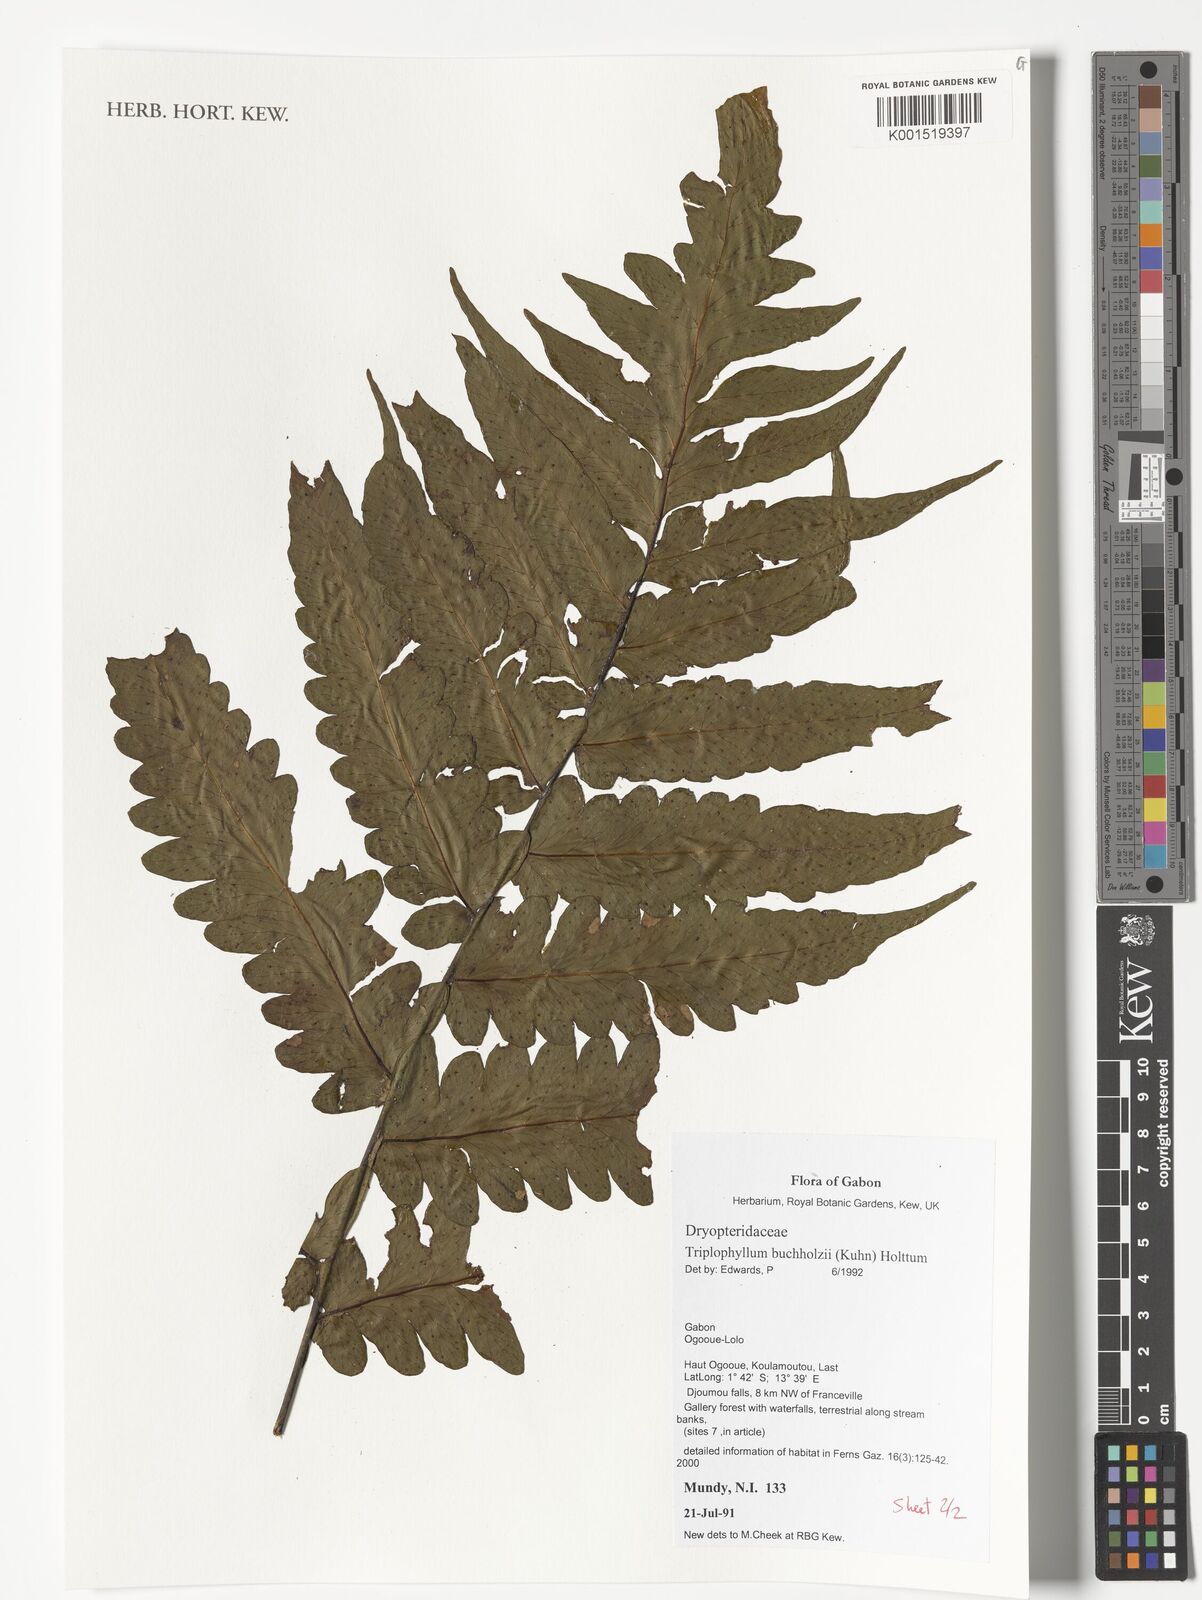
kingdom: Plantae
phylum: Tracheophyta
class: Polypodiopsida
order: Polypodiales
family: Tectariaceae
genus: Triplophyllum
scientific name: Triplophyllum buchholzii
